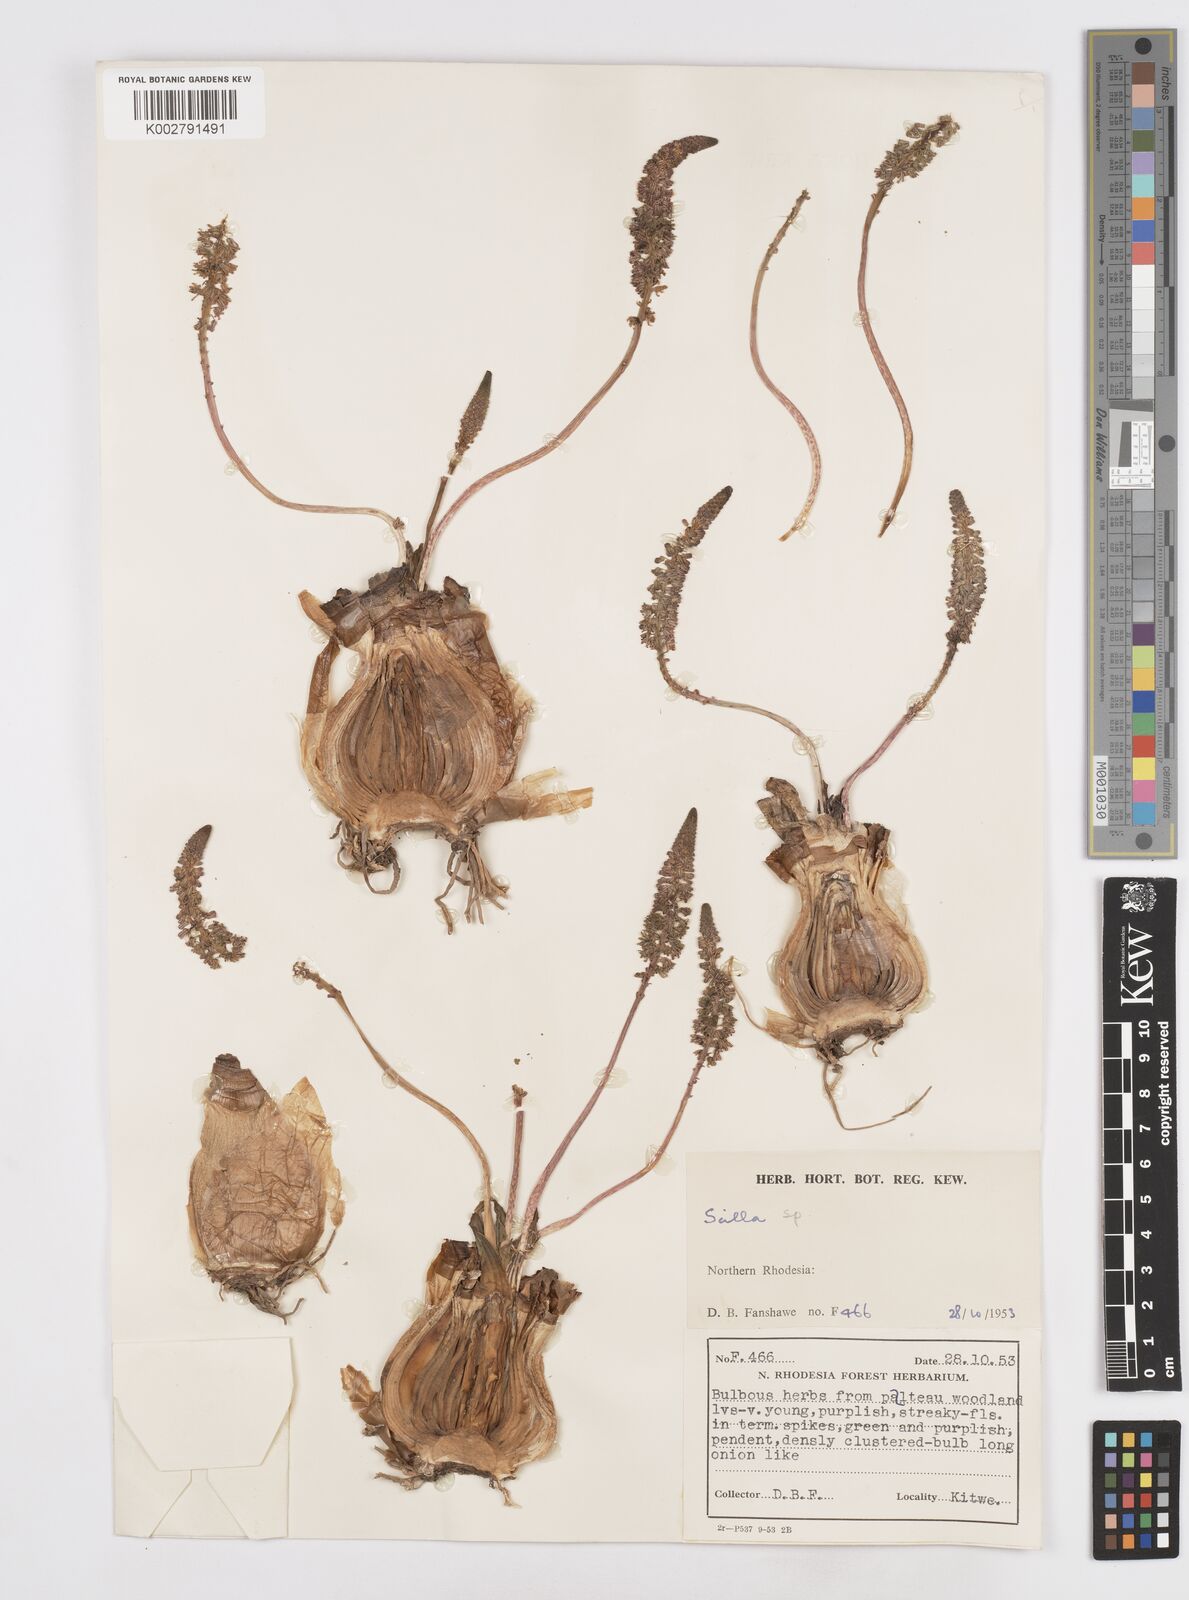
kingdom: Plantae
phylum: Tracheophyta
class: Liliopsida
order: Asparagales
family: Asparagaceae
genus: Scilla
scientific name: Scilla
